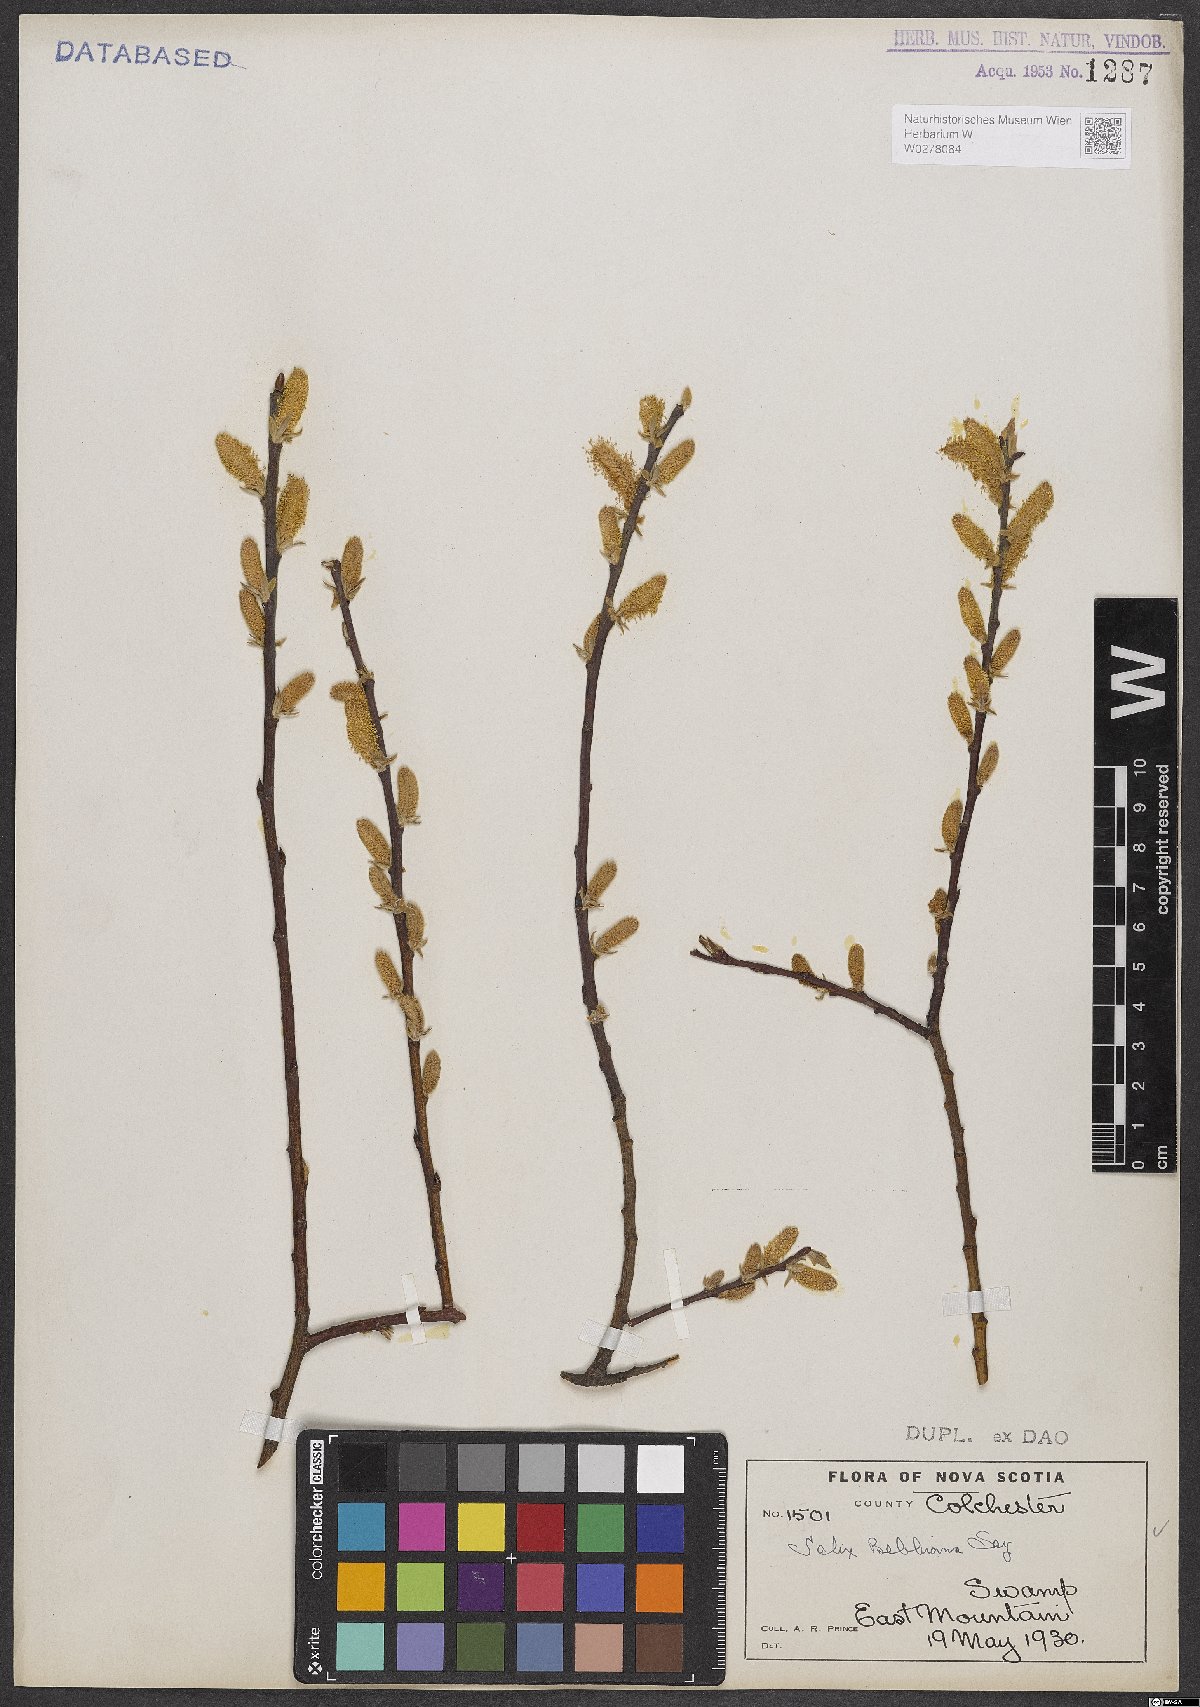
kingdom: Plantae
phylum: Tracheophyta
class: Magnoliopsida
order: Malpighiales
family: Salicaceae
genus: Salix
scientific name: Salix bebbiana
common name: Bebb's willow
